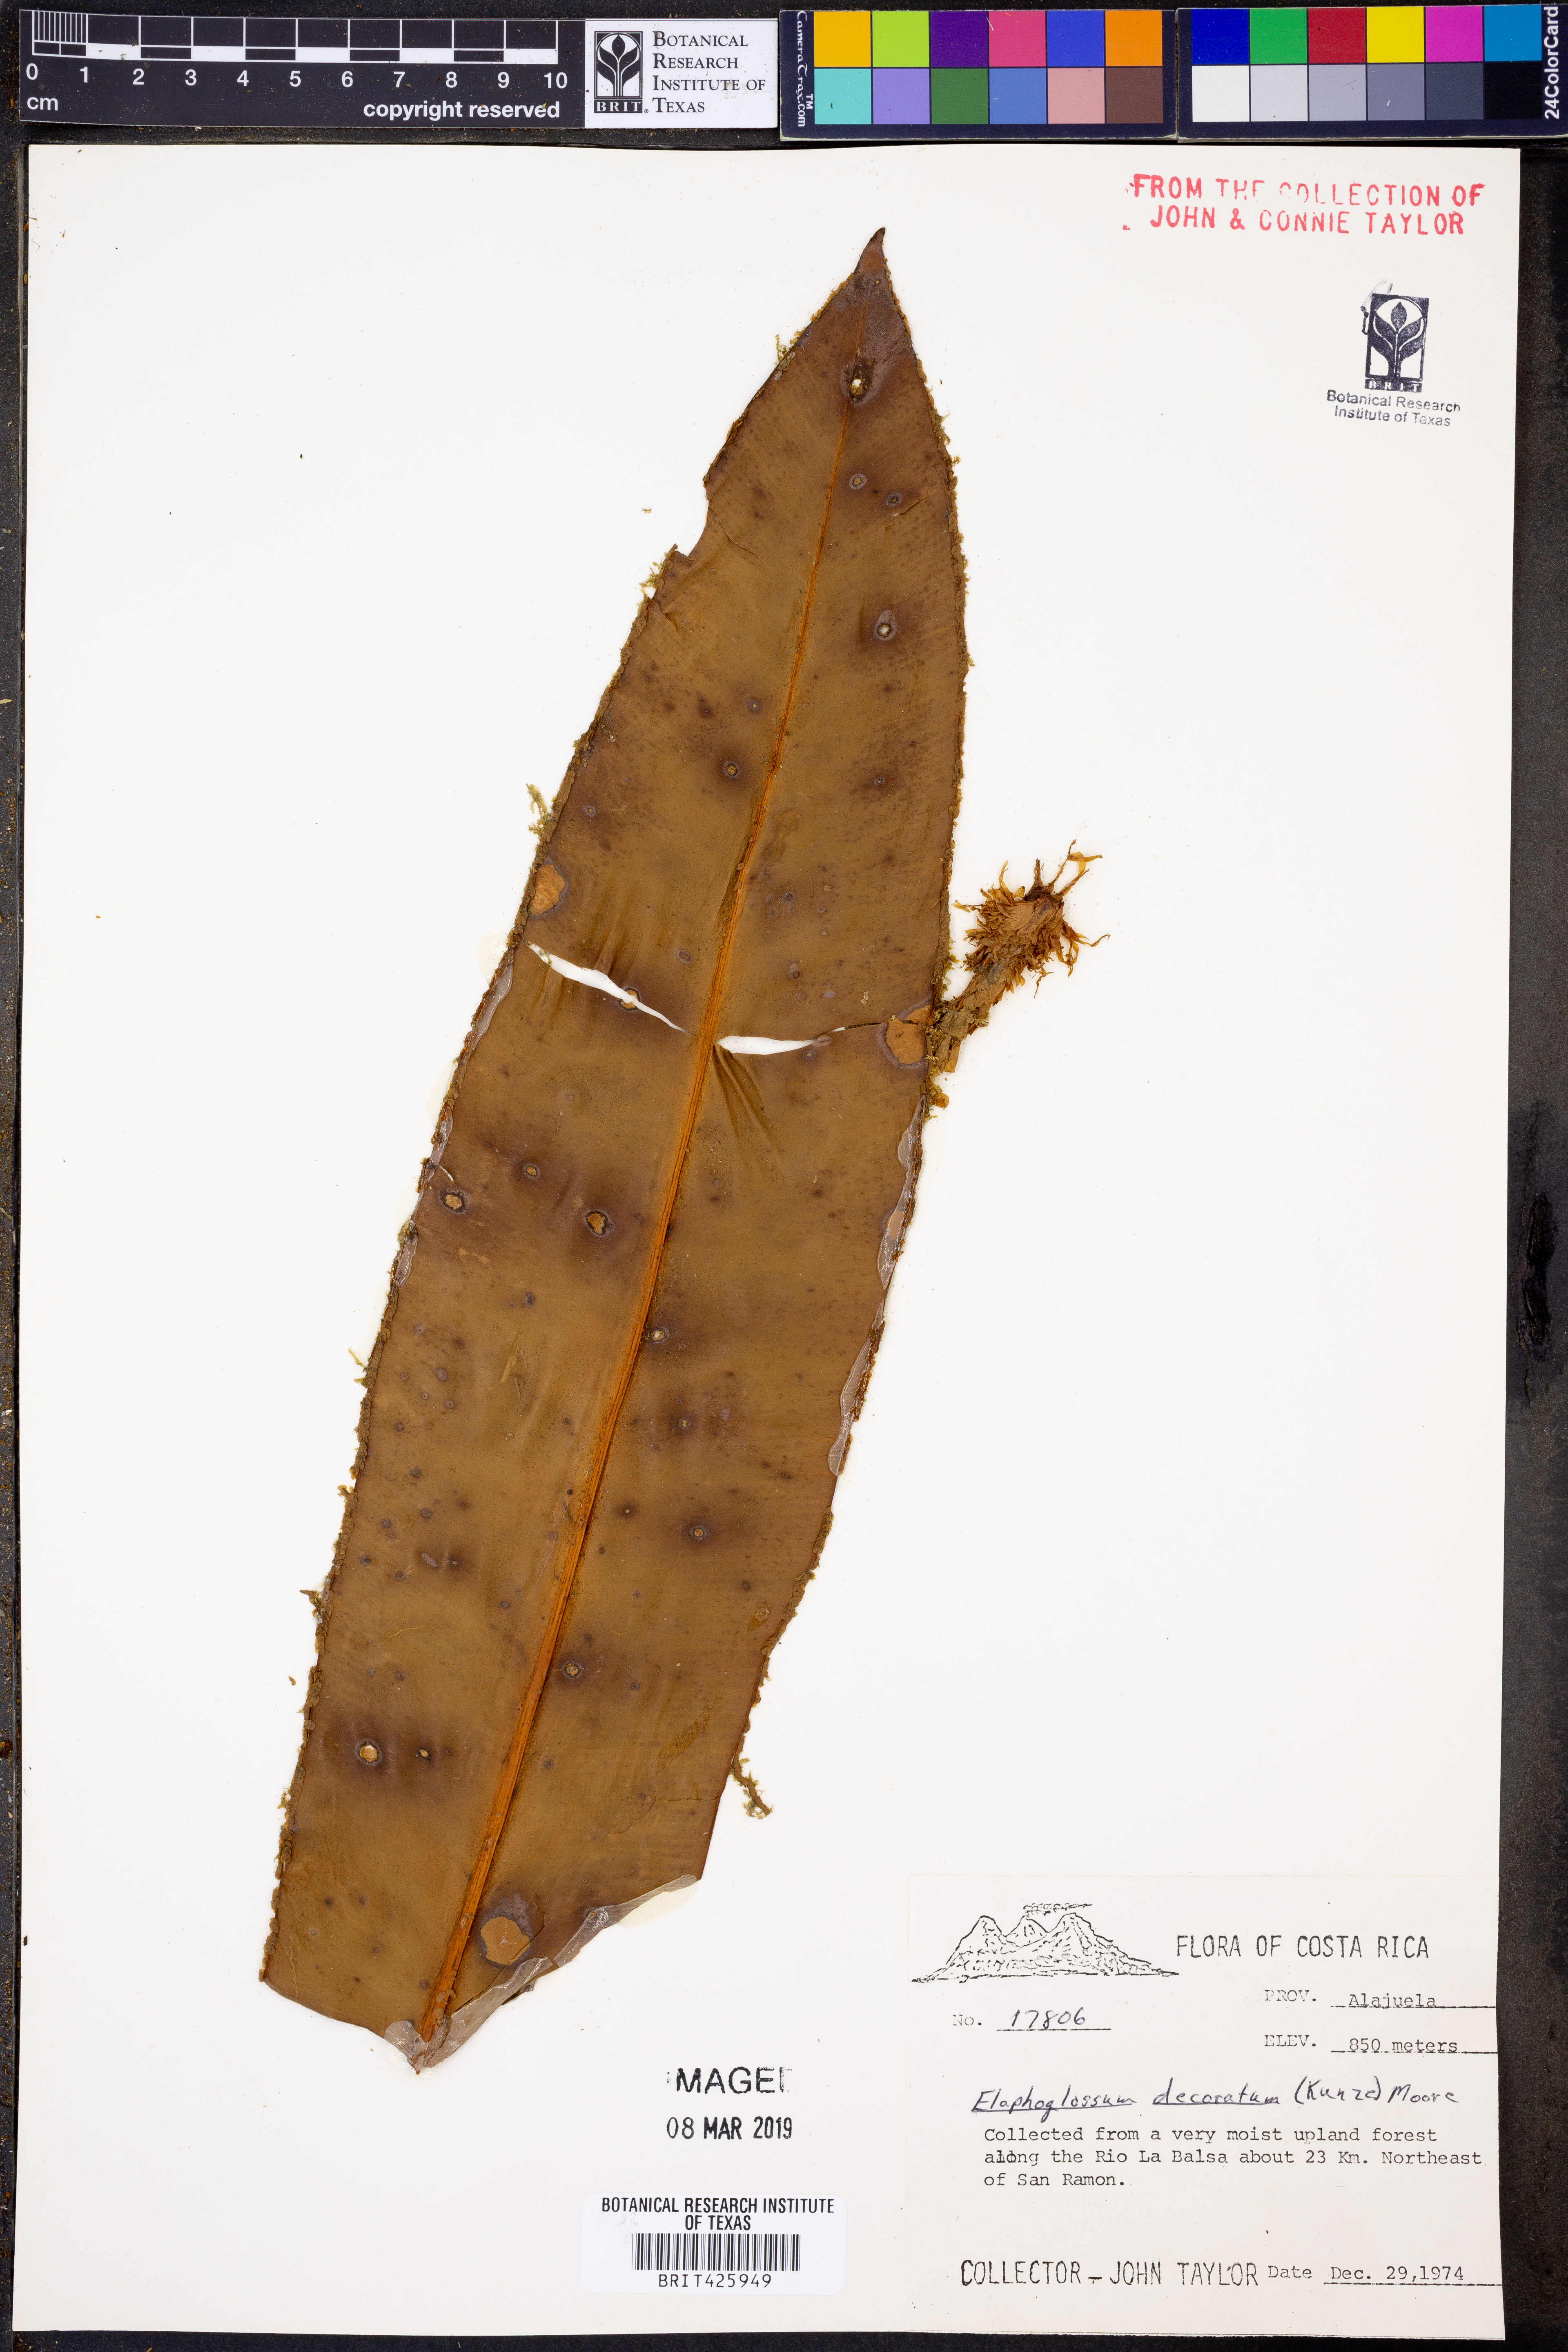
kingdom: Plantae
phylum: Tracheophyta
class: Polypodiopsida
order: Polypodiales
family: Dryopteridaceae
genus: Elaphoglossum
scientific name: Elaphoglossum decoratum
